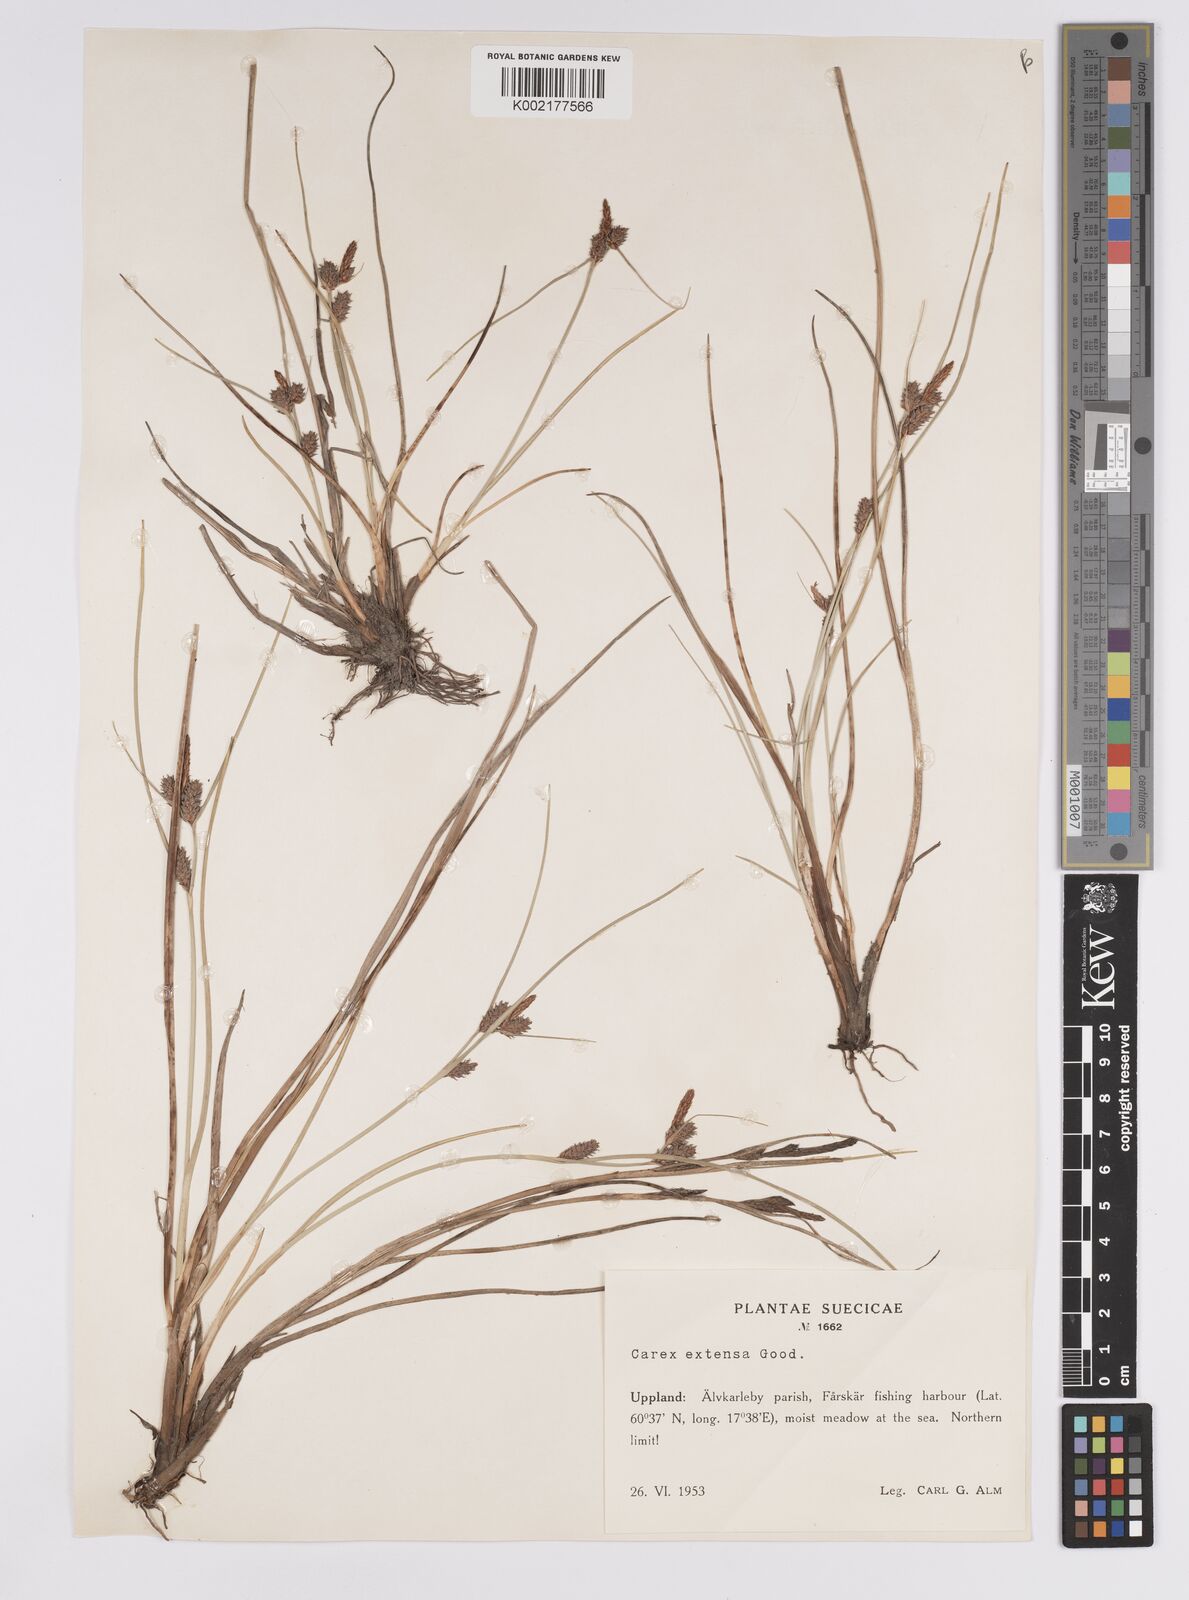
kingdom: Plantae
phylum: Tracheophyta
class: Liliopsida
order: Poales
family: Cyperaceae
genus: Carex
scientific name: Carex extensa
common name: Long-bracted sedge
